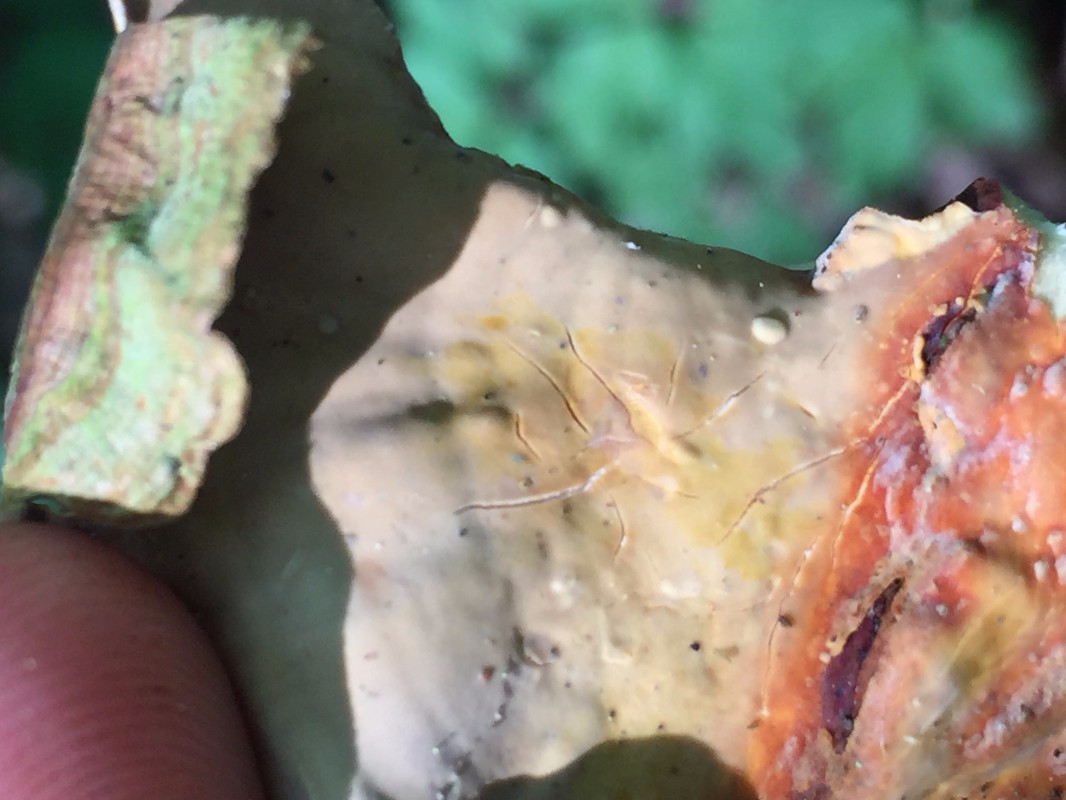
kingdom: Fungi
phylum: Basidiomycota
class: Agaricomycetes
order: Russulales
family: Stereaceae
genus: Stereum
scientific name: Stereum subtomentosum
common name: smuk lædersvamp
